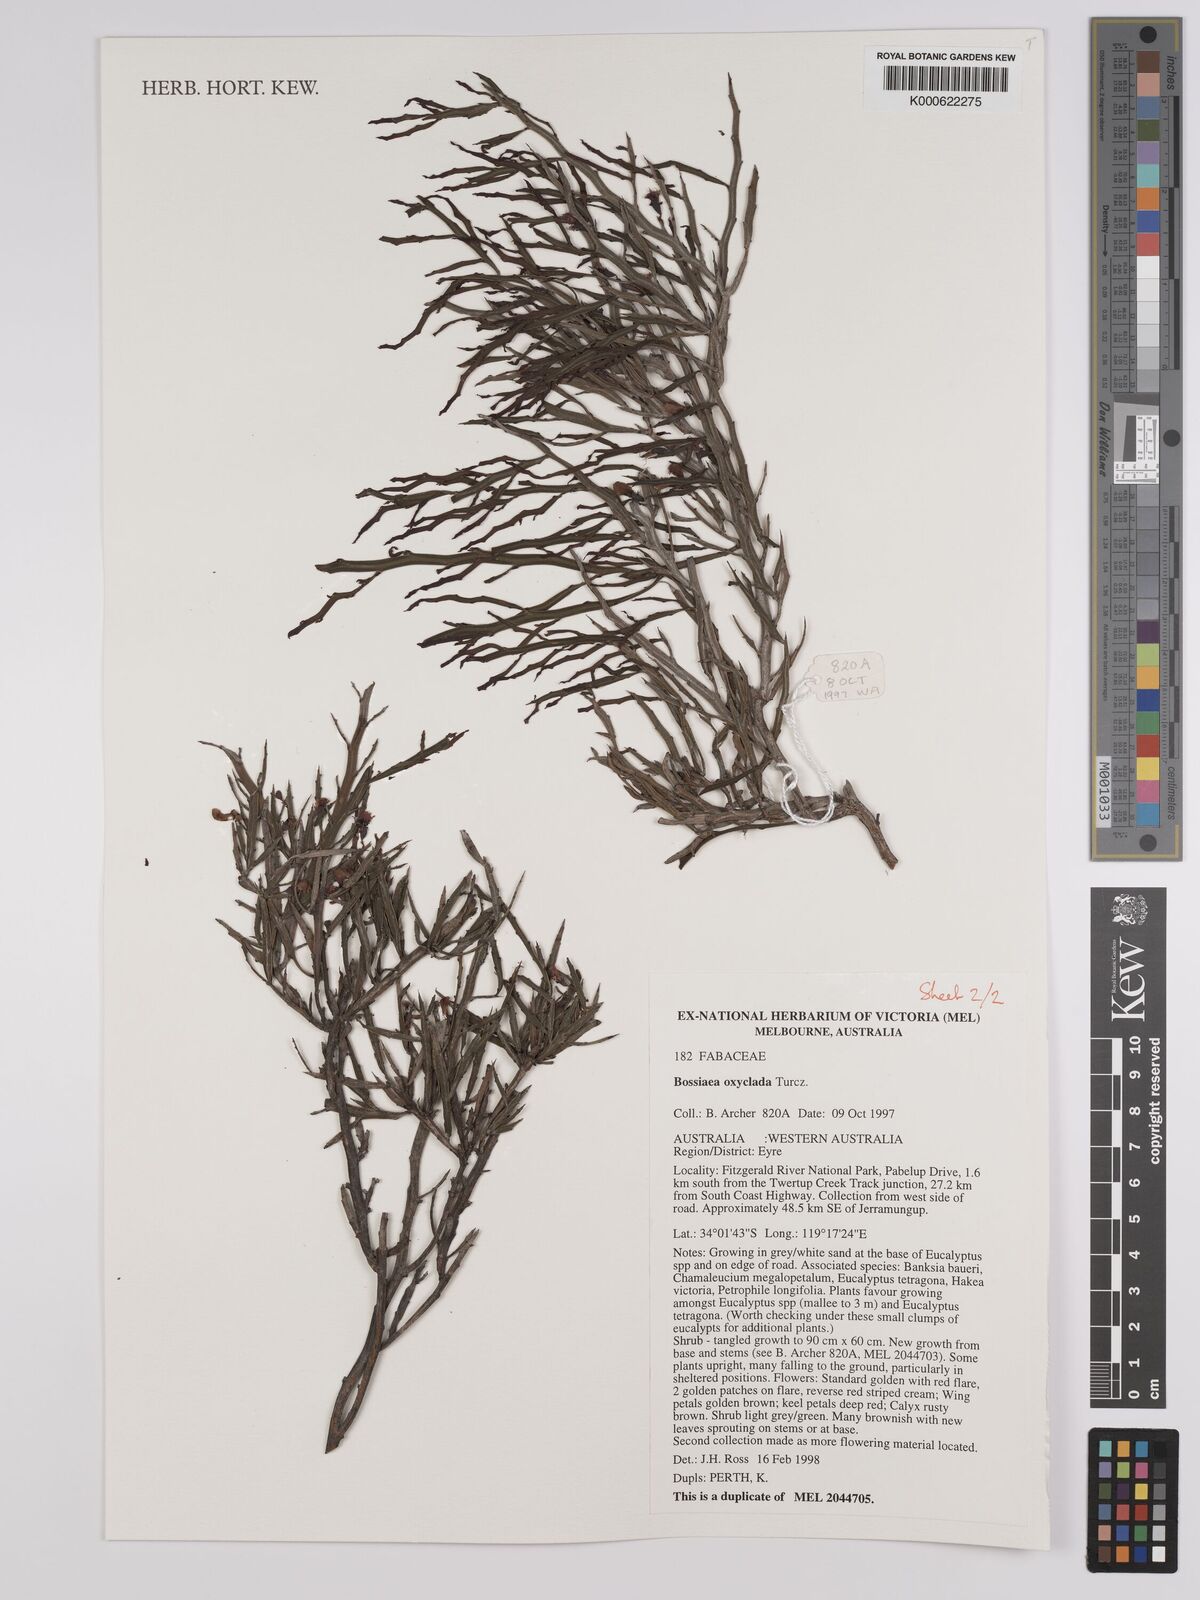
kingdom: Plantae
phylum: Tracheophyta
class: Magnoliopsida
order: Fabales
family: Fabaceae
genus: Bossiaea
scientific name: Bossiaea oxyclada
